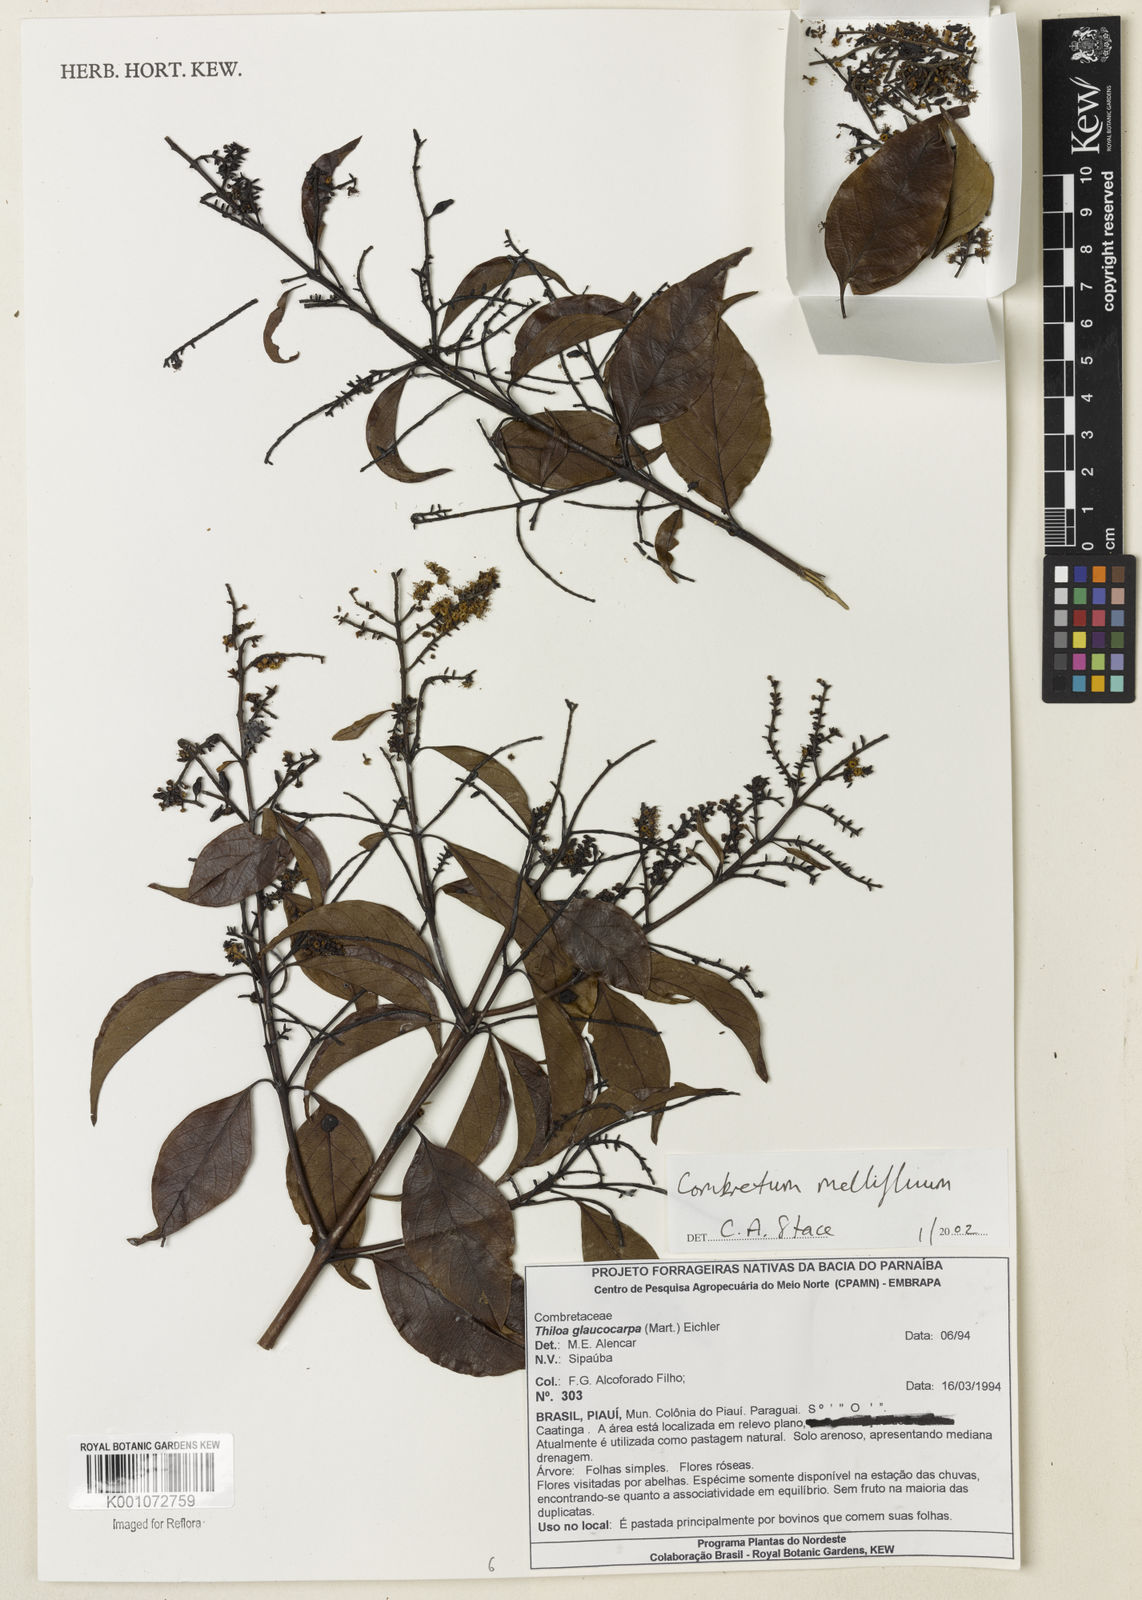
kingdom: Plantae
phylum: Tracheophyta
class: Magnoliopsida
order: Myrtales
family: Combretaceae
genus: Combretum
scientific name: Combretum mellifluum
